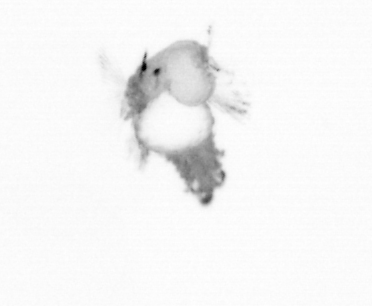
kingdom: Animalia
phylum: Annelida
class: Polychaeta
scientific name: Polychaeta
